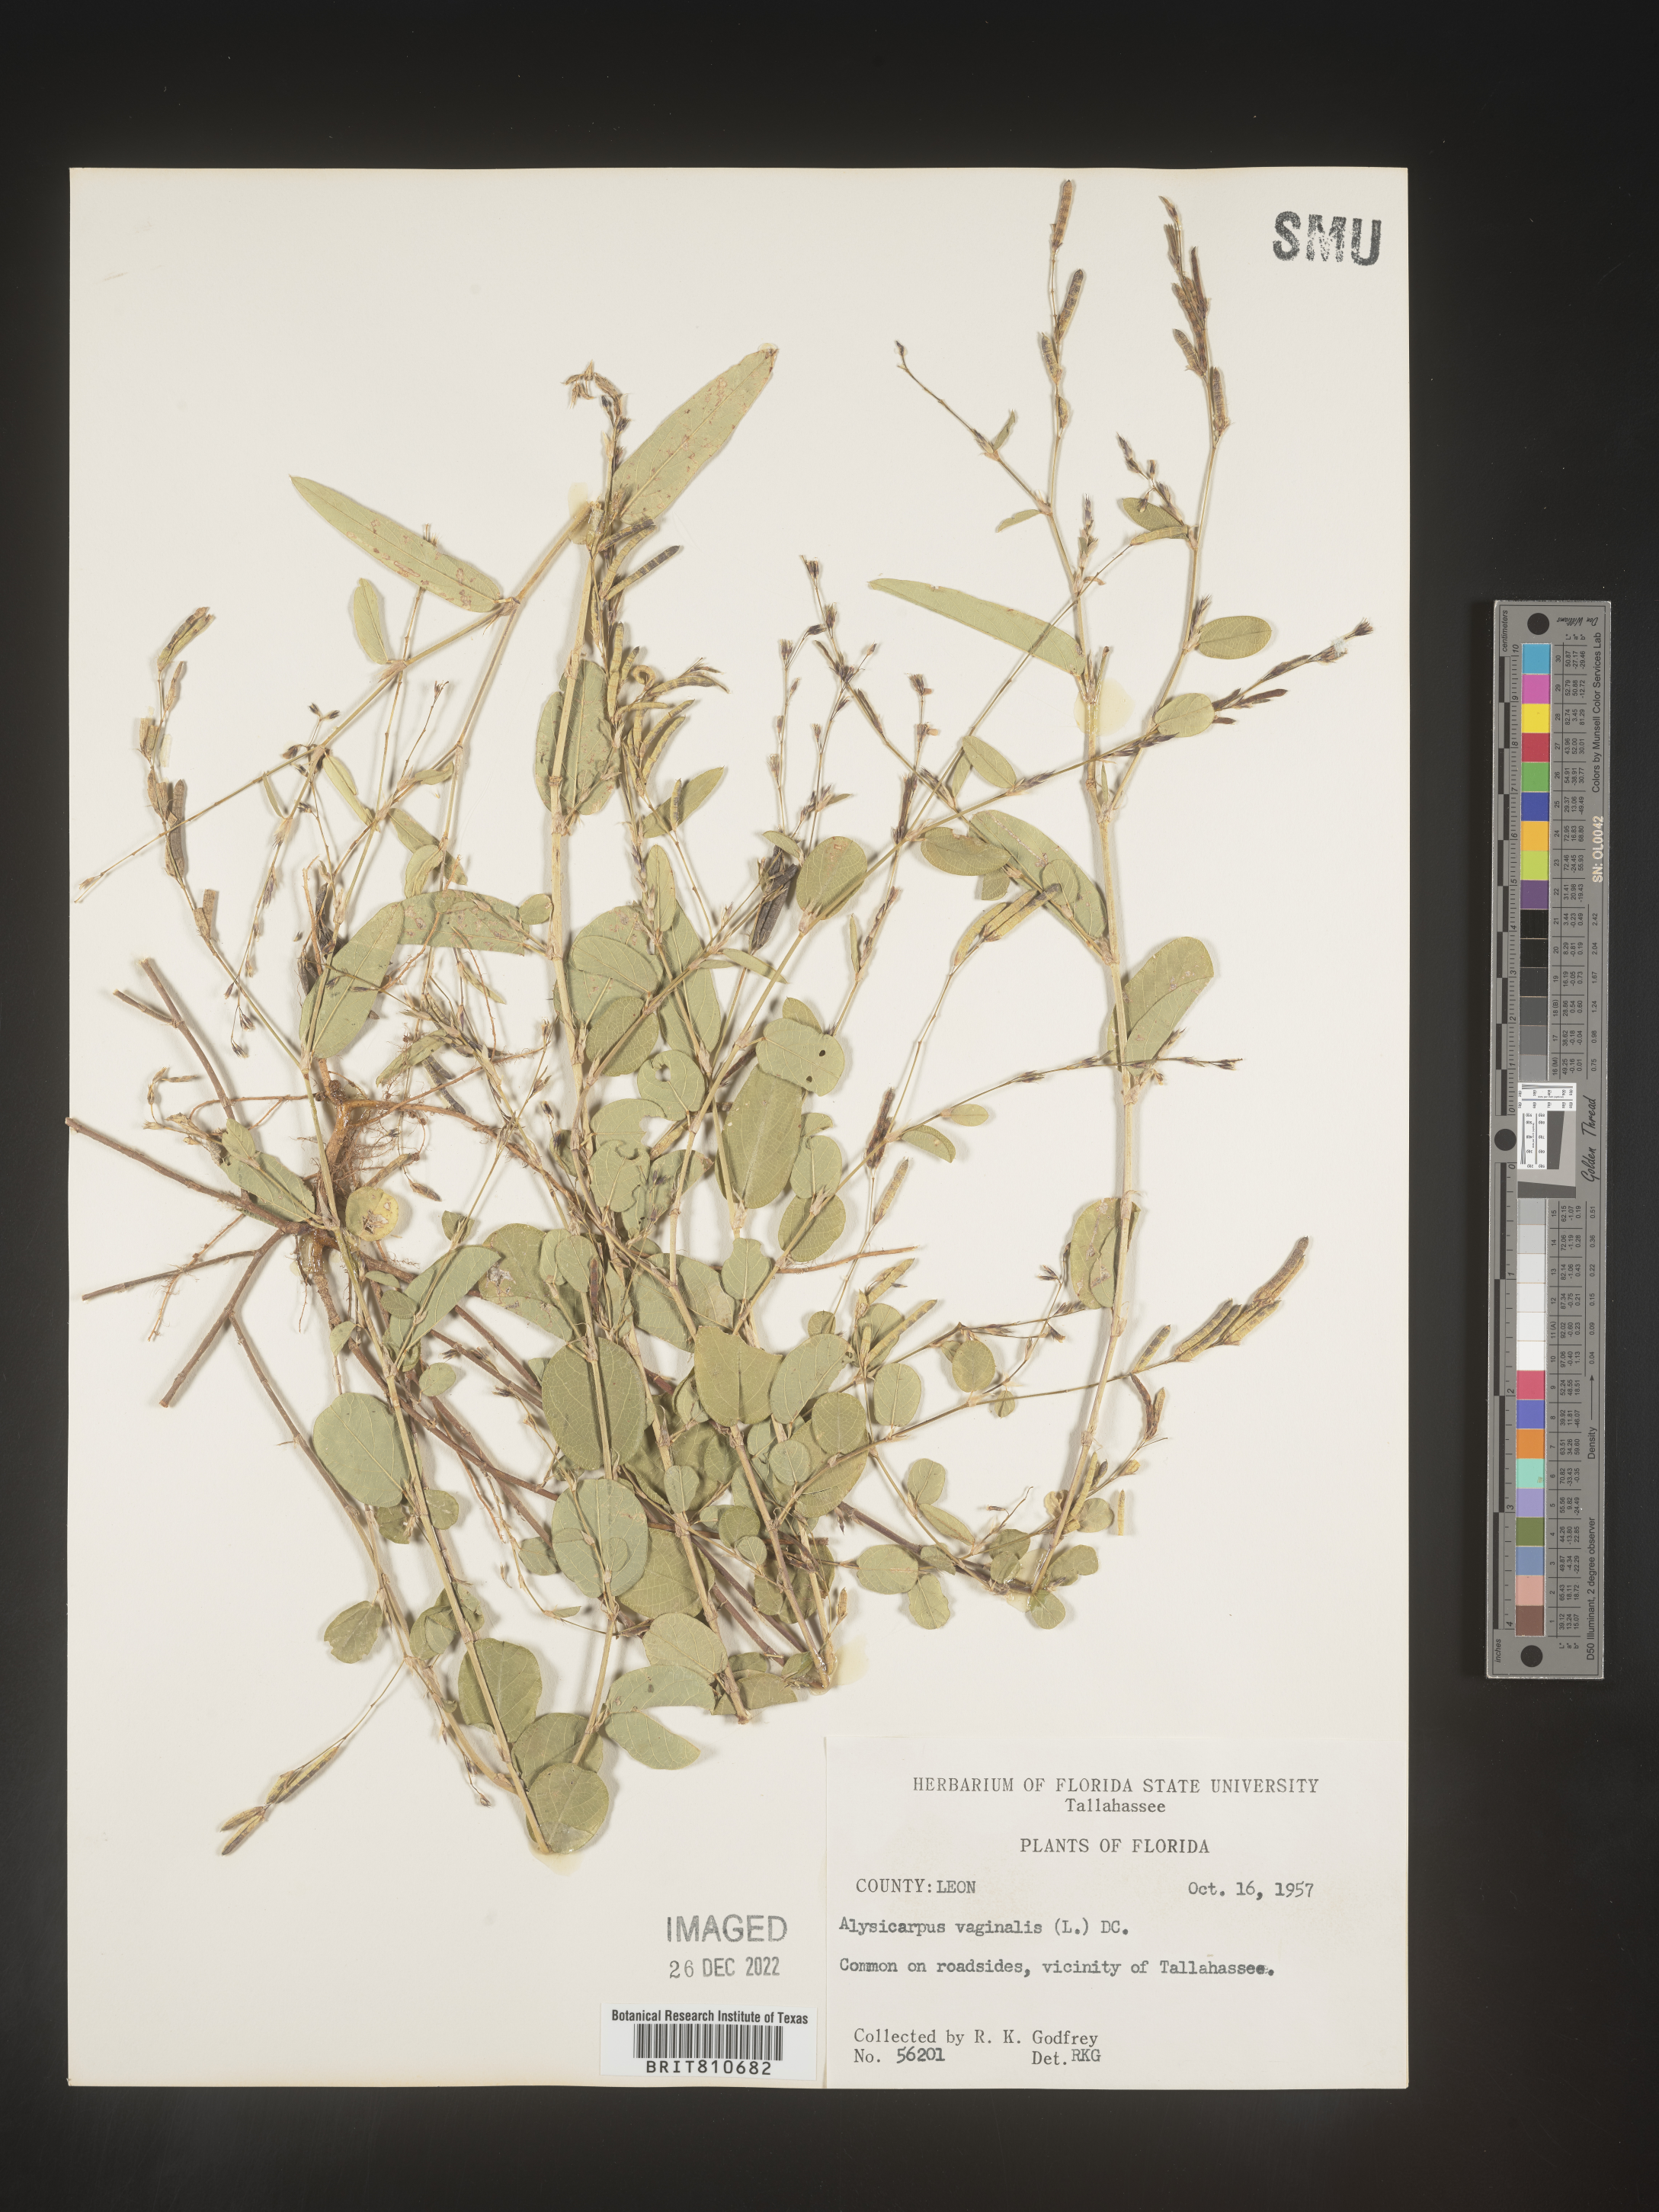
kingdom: Plantae
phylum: Tracheophyta
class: Magnoliopsida
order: Fabales
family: Fabaceae
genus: Alysicarpus
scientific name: Alysicarpus
